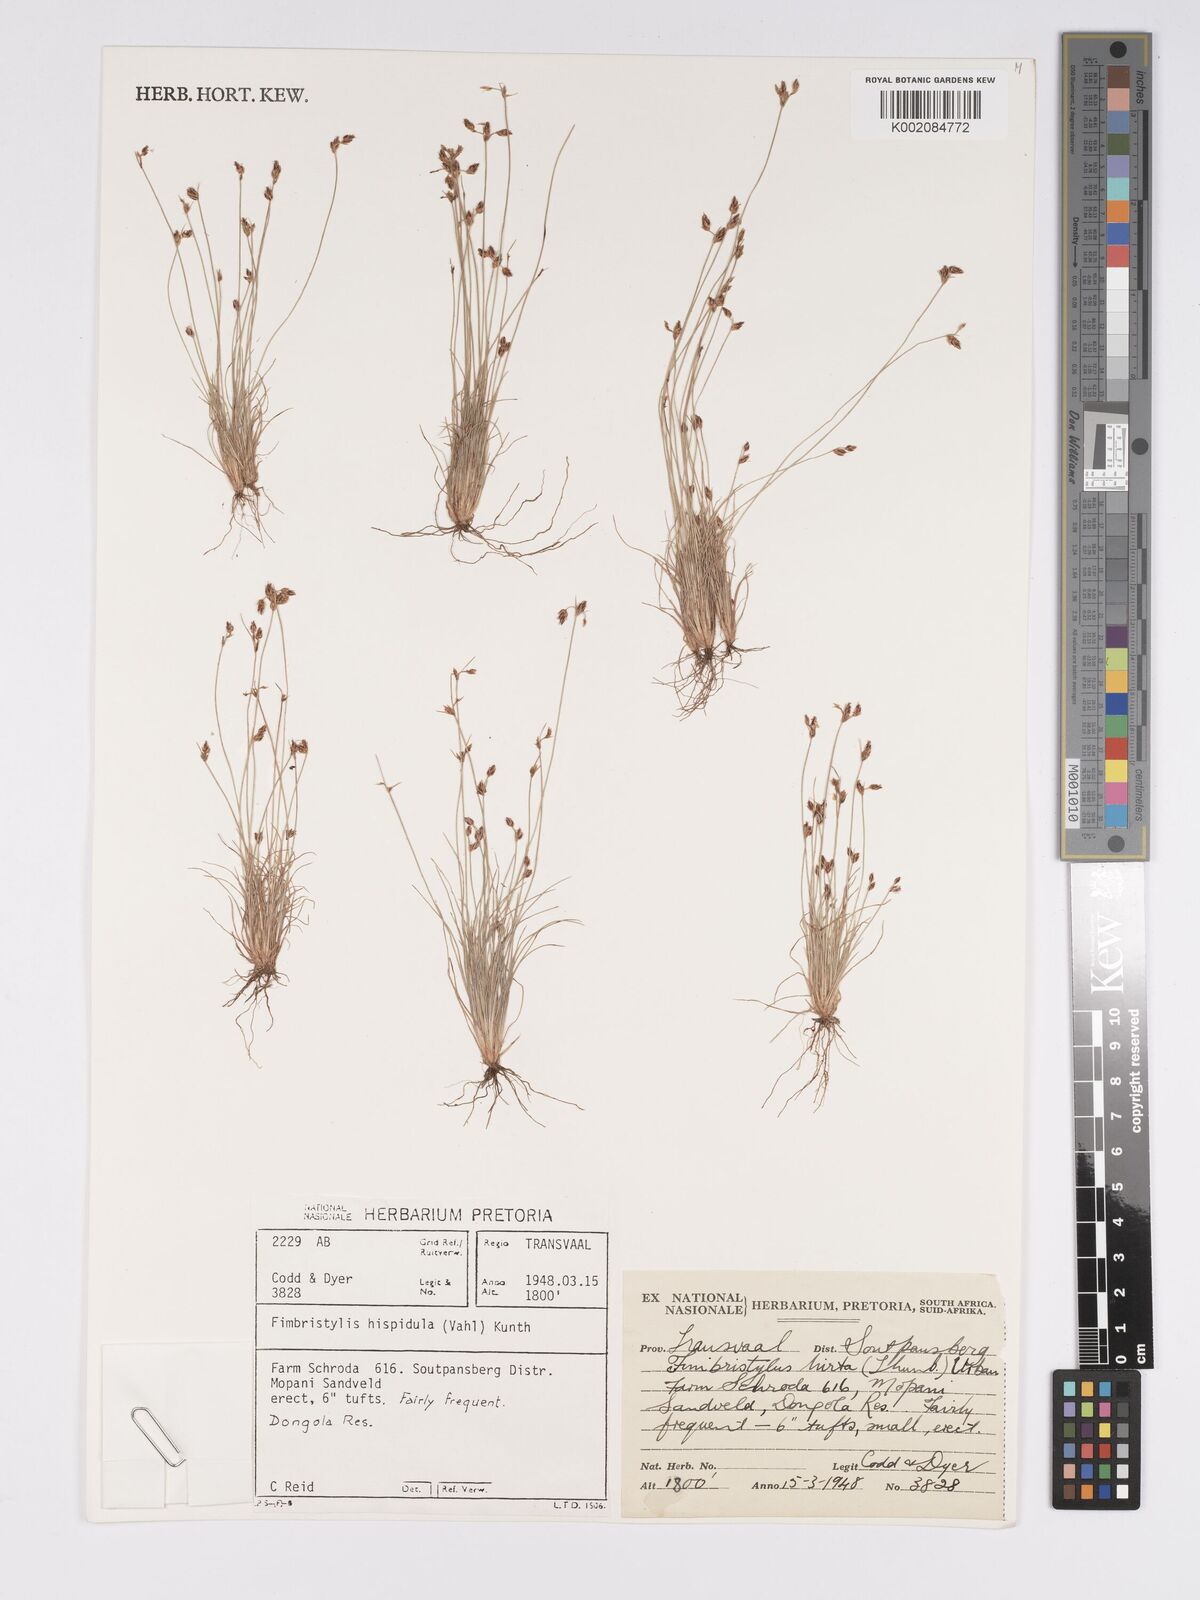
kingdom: Plantae
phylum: Tracheophyta
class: Liliopsida
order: Poales
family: Cyperaceae
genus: Bulbostylis
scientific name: Bulbostylis hispidula
